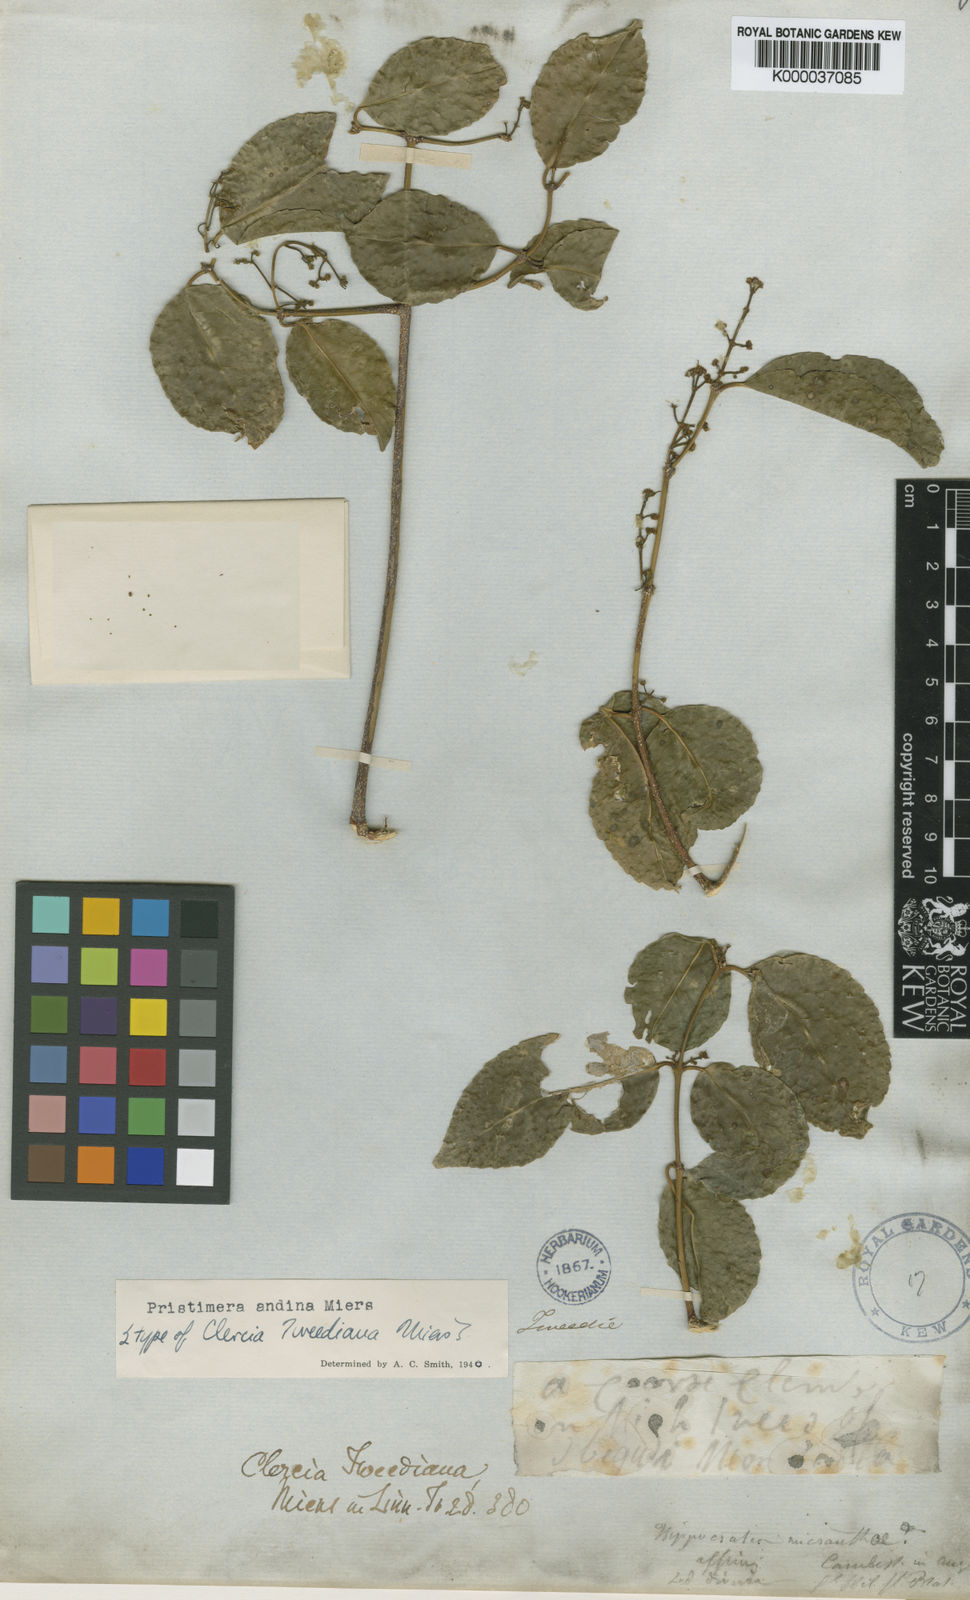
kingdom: Plantae
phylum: Tracheophyta
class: Magnoliopsida
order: Celastrales
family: Celastraceae
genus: Pristimera
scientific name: Pristimera celastroides
